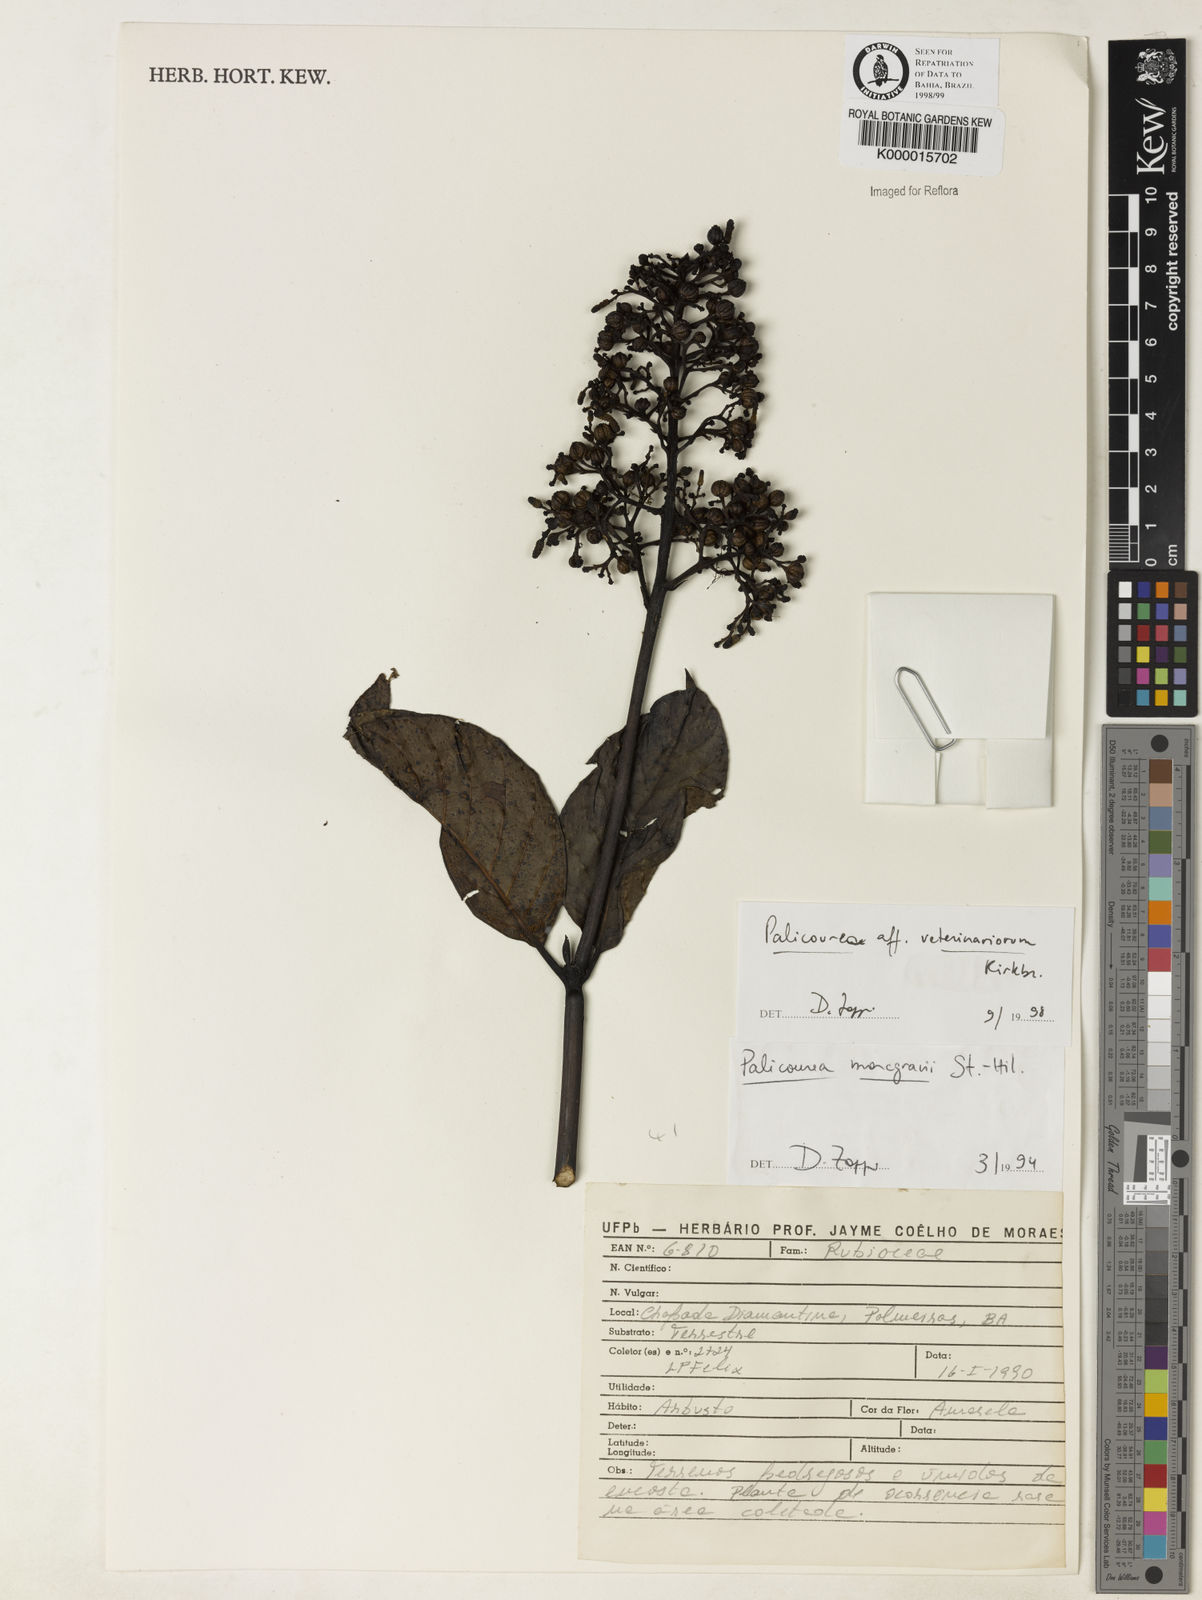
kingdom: Plantae
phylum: Tracheophyta
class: Magnoliopsida
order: Gentianales
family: Rubiaceae
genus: Palicourea
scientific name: Palicourea veterinariorum
